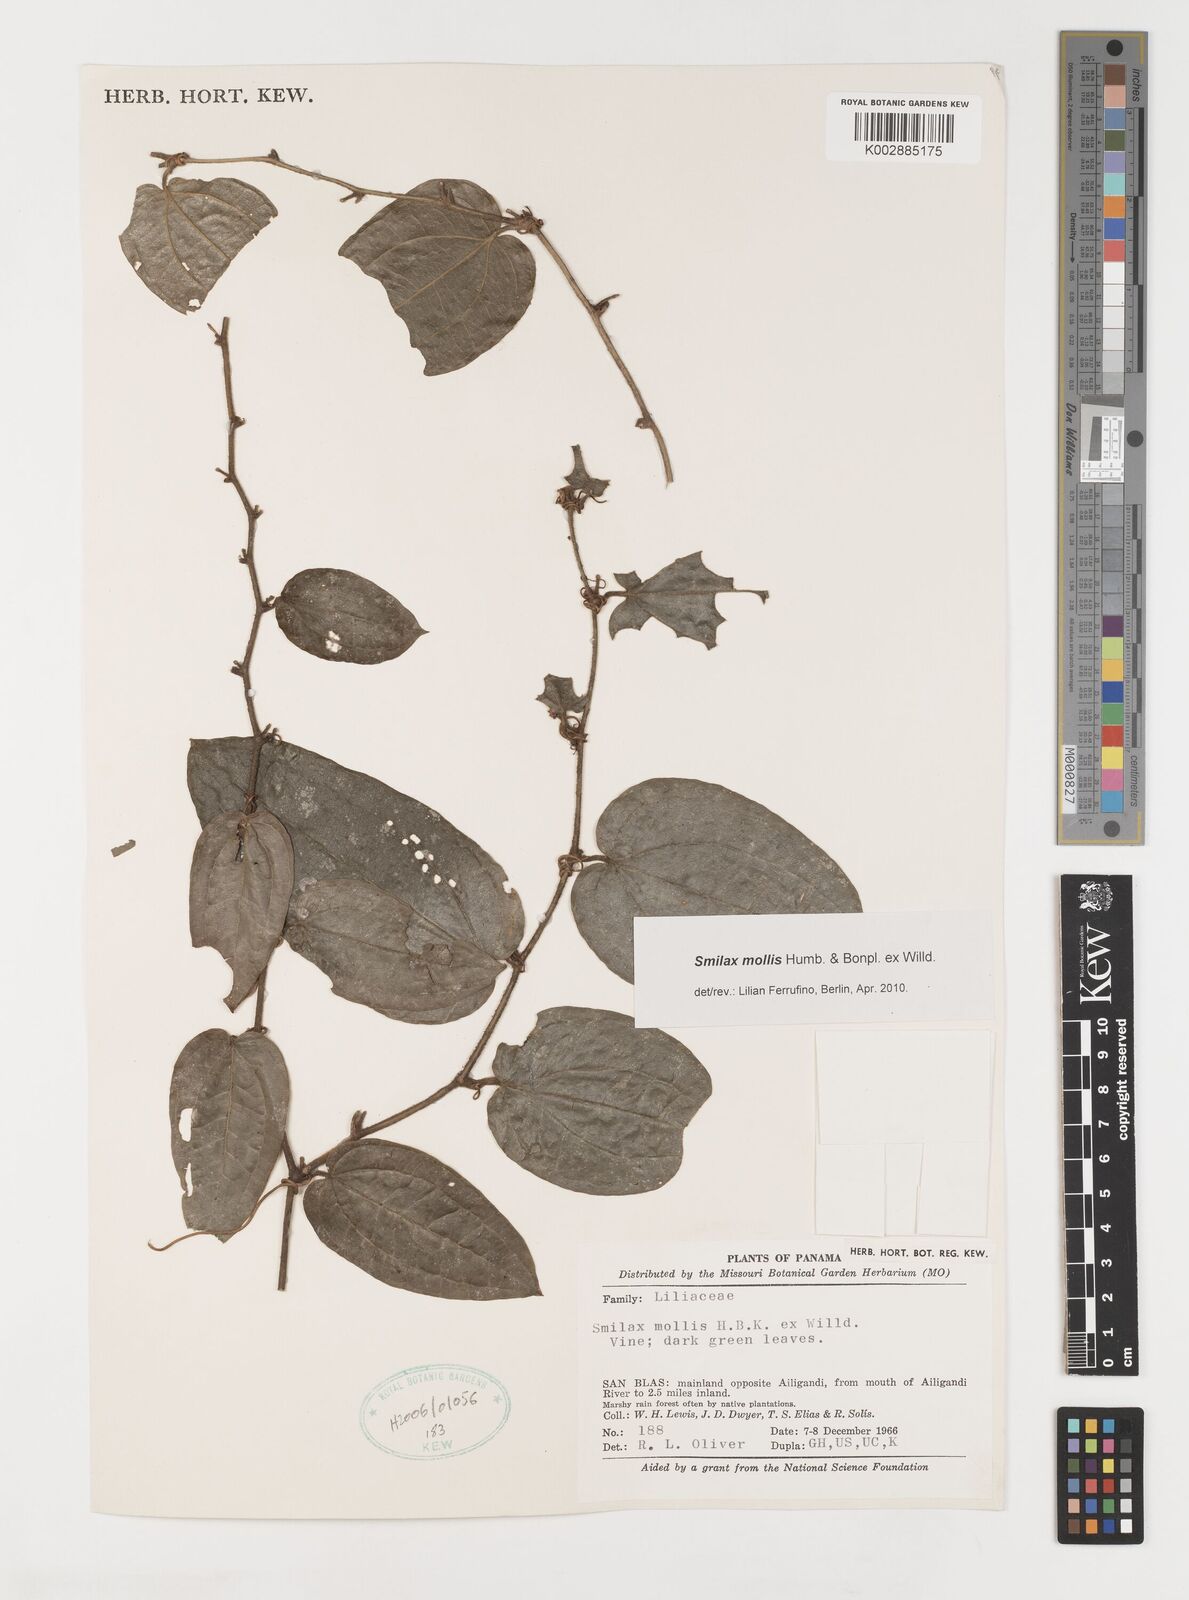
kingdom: Plantae
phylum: Tracheophyta
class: Liliopsida
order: Liliales
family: Smilacaceae
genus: Smilax
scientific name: Smilax mollis
